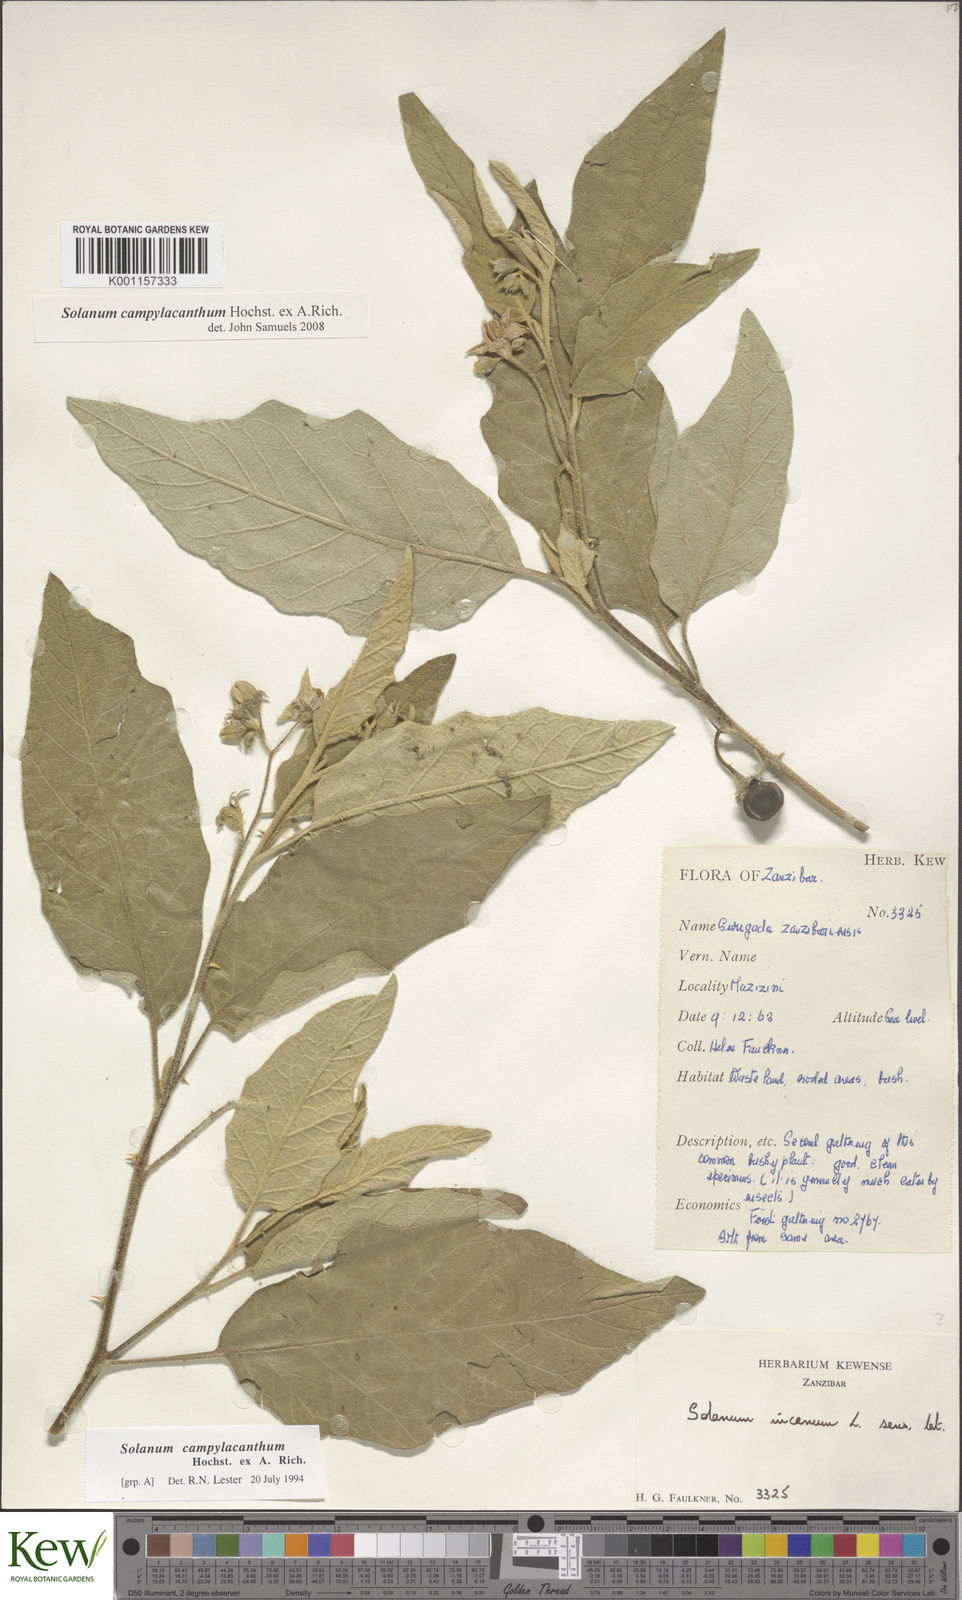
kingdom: Plantae
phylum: Tracheophyta
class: Magnoliopsida
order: Solanales
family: Solanaceae
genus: Solanum
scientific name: Solanum campylacanthum
